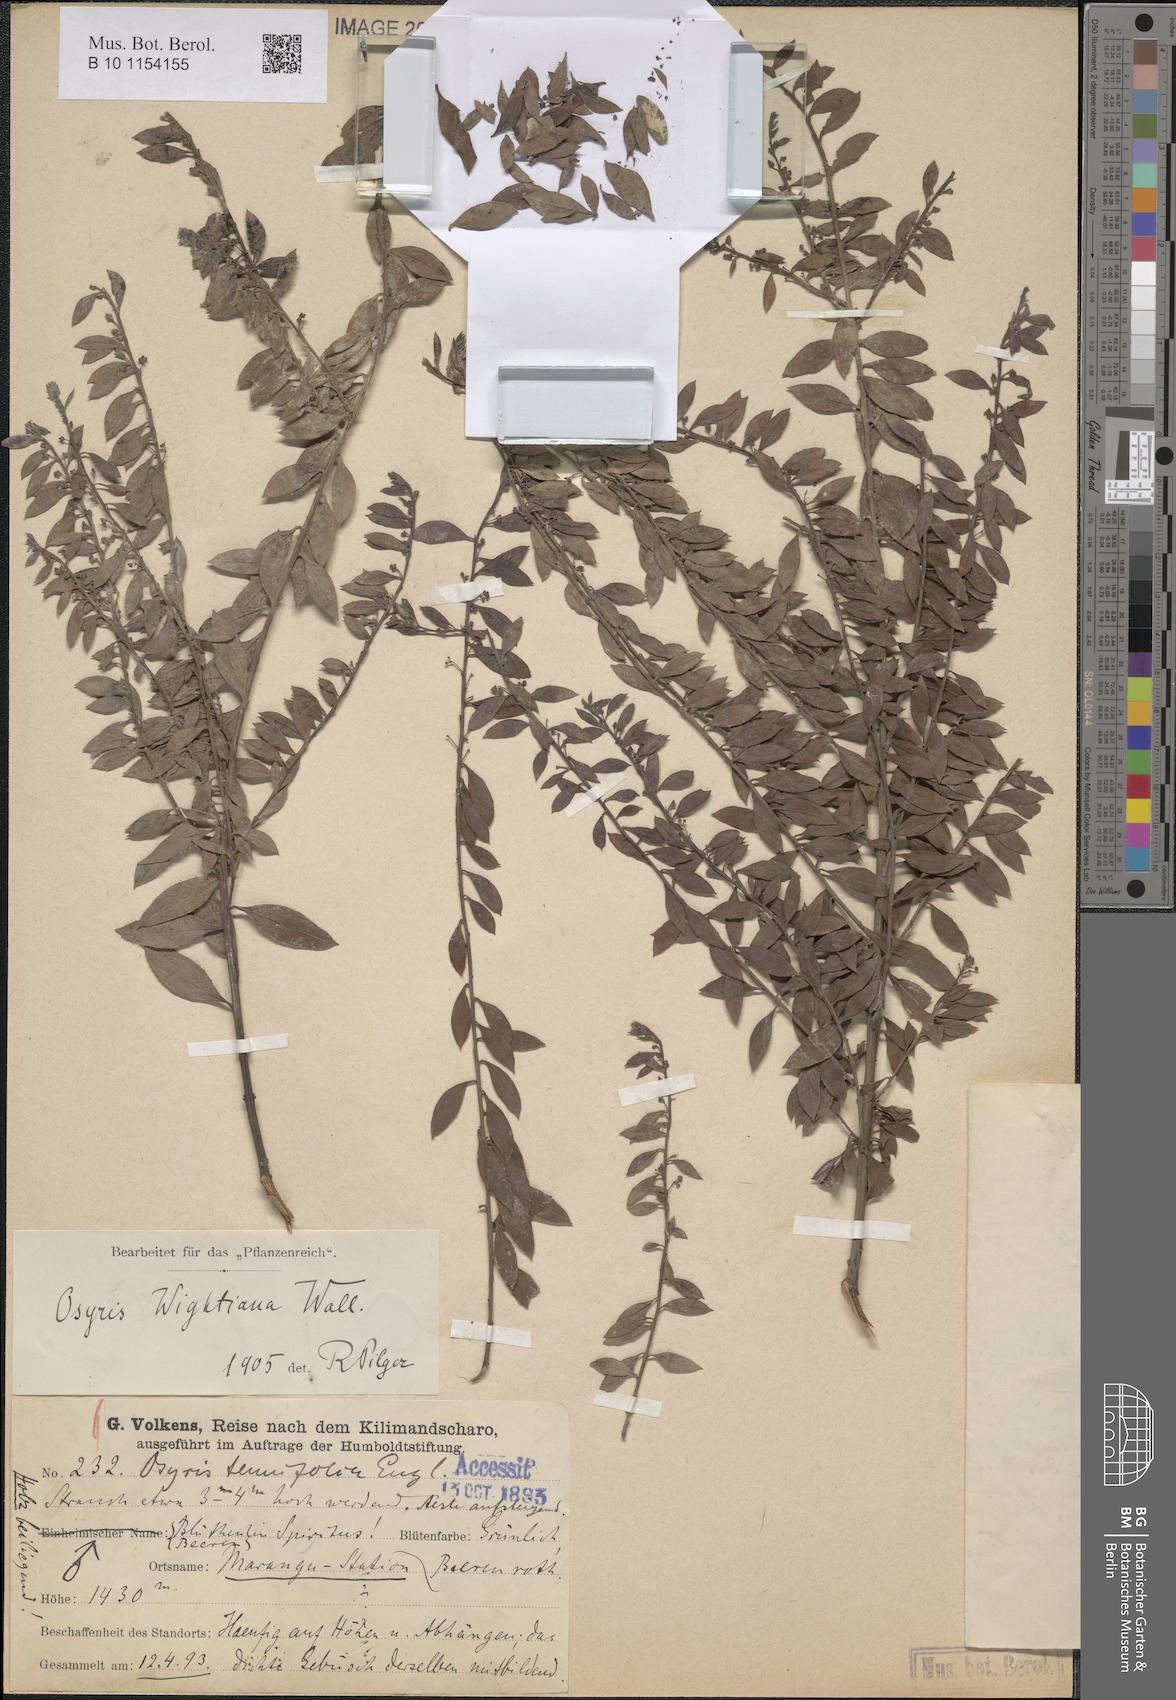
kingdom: Plantae
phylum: Tracheophyta
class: Magnoliopsida
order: Santalales
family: Santalaceae
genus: Osyris
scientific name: Osyris lanceolata
